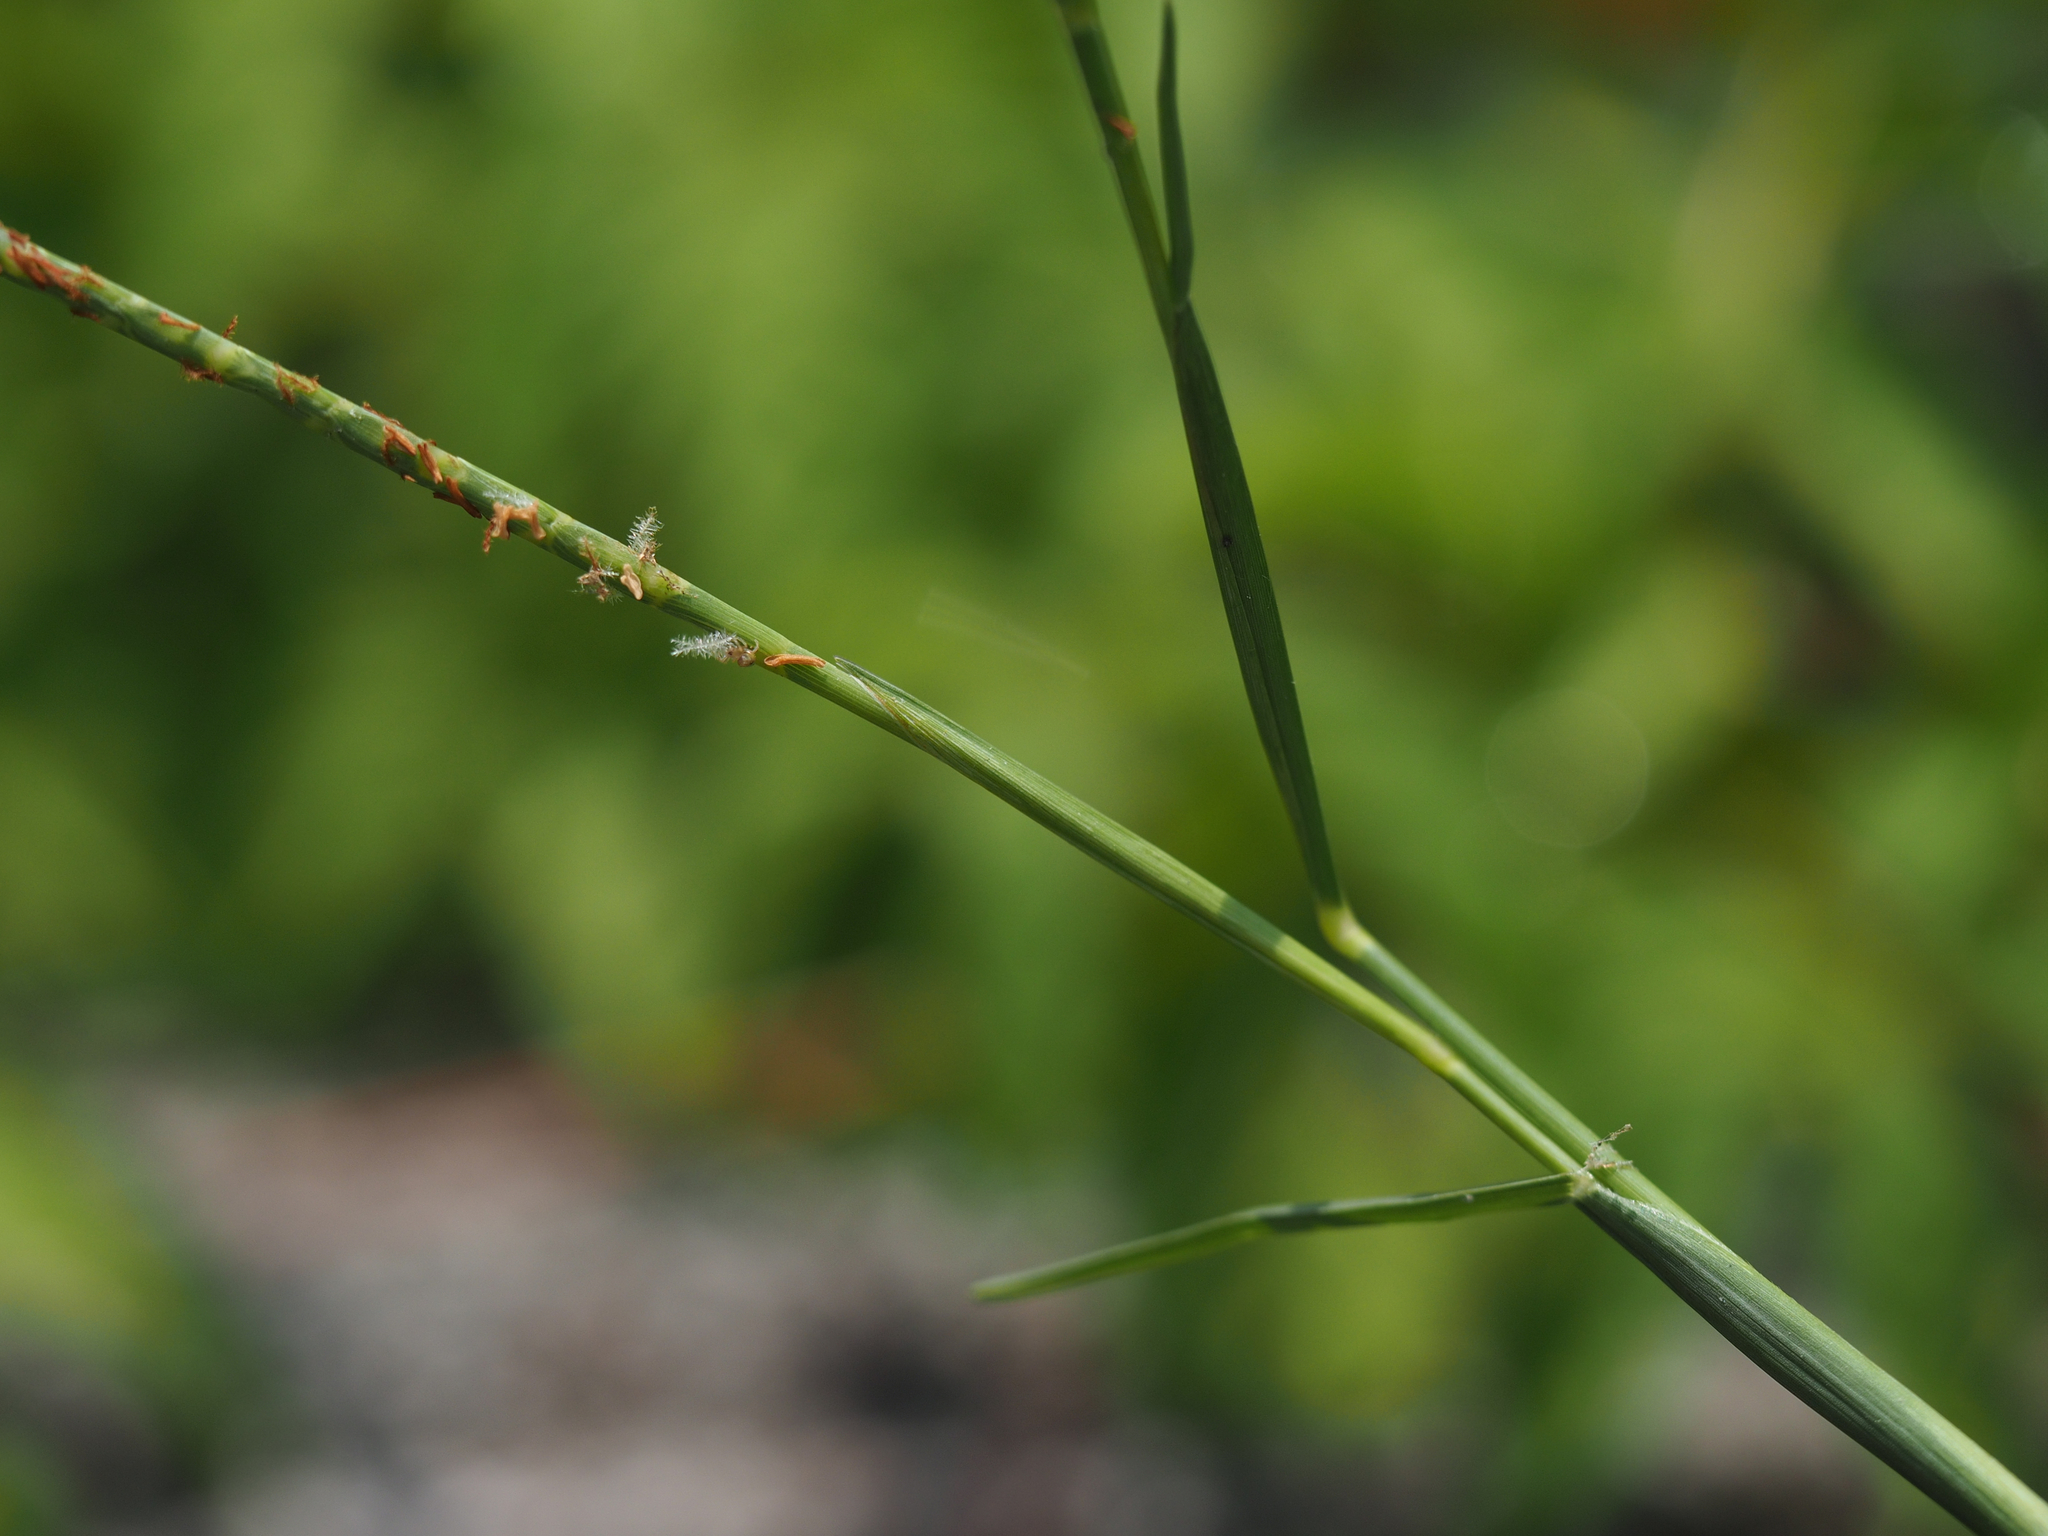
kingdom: Plantae
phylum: Tracheophyta
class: Liliopsida
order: Poales
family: Poaceae
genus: Hemarthria
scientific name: Hemarthria compressa
